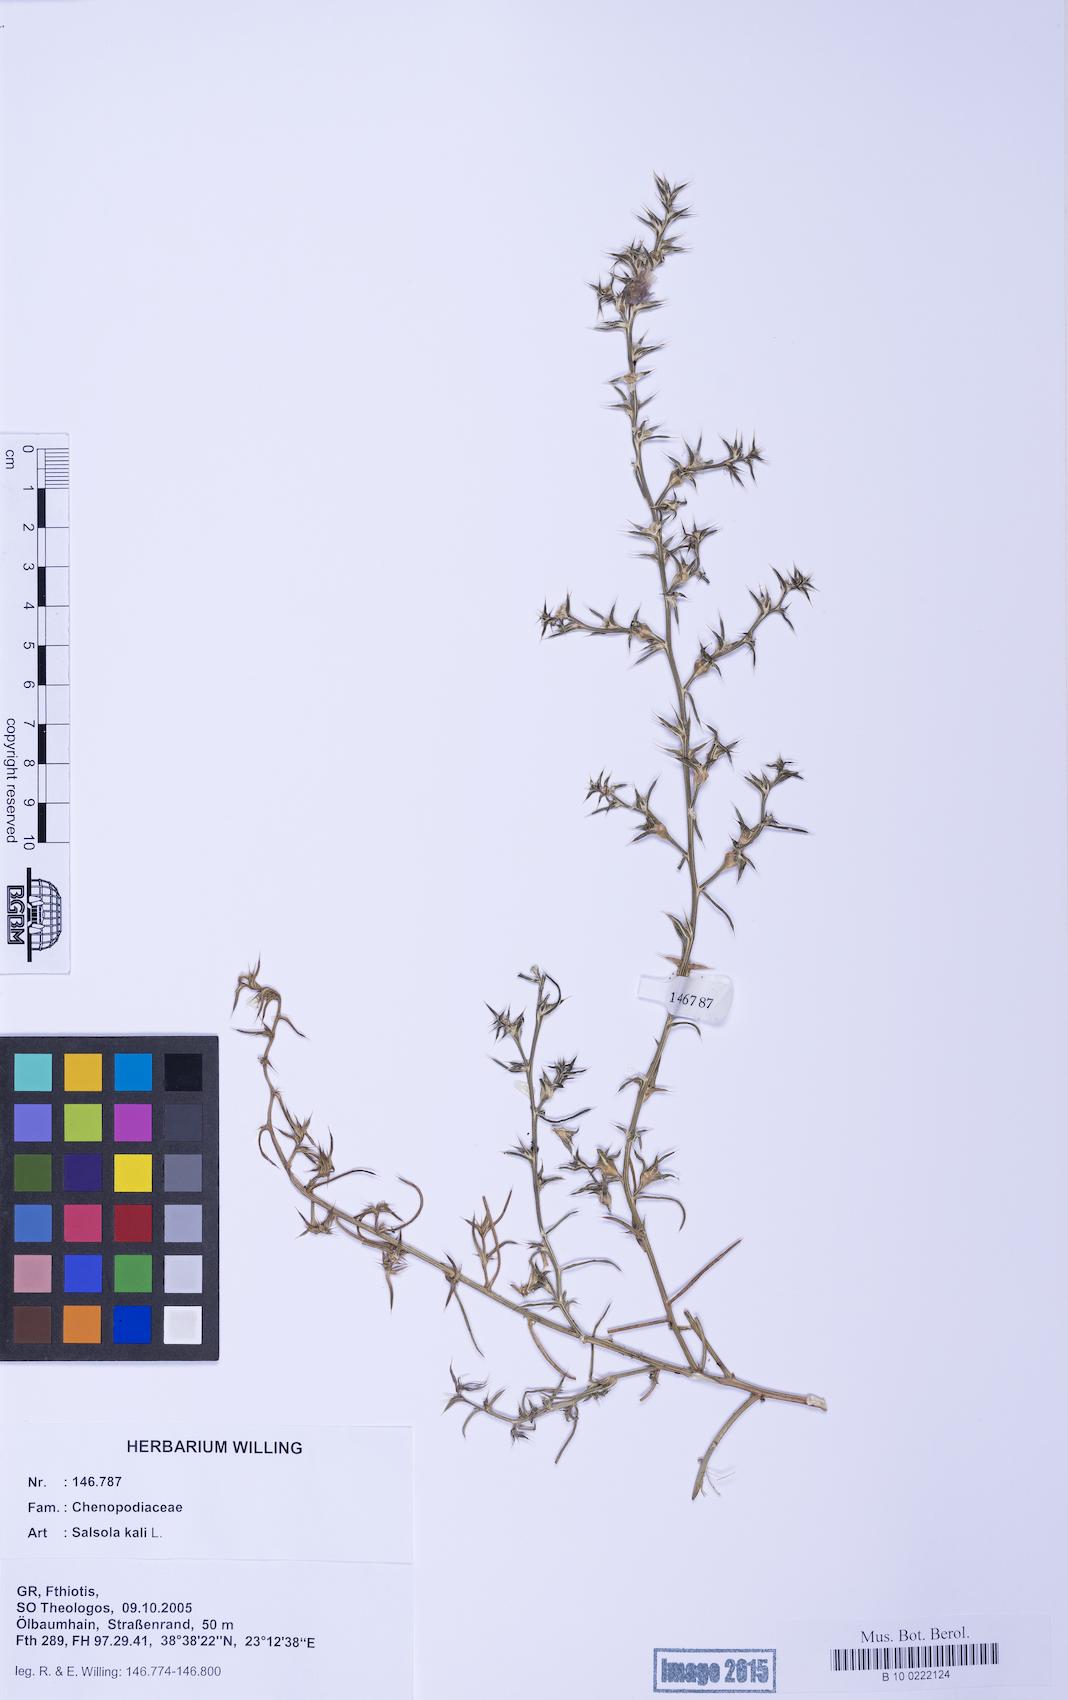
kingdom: Plantae
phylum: Tracheophyta
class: Magnoliopsida
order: Caryophyllales
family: Amaranthaceae
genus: Salsola
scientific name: Salsola kali
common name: Saltwort
